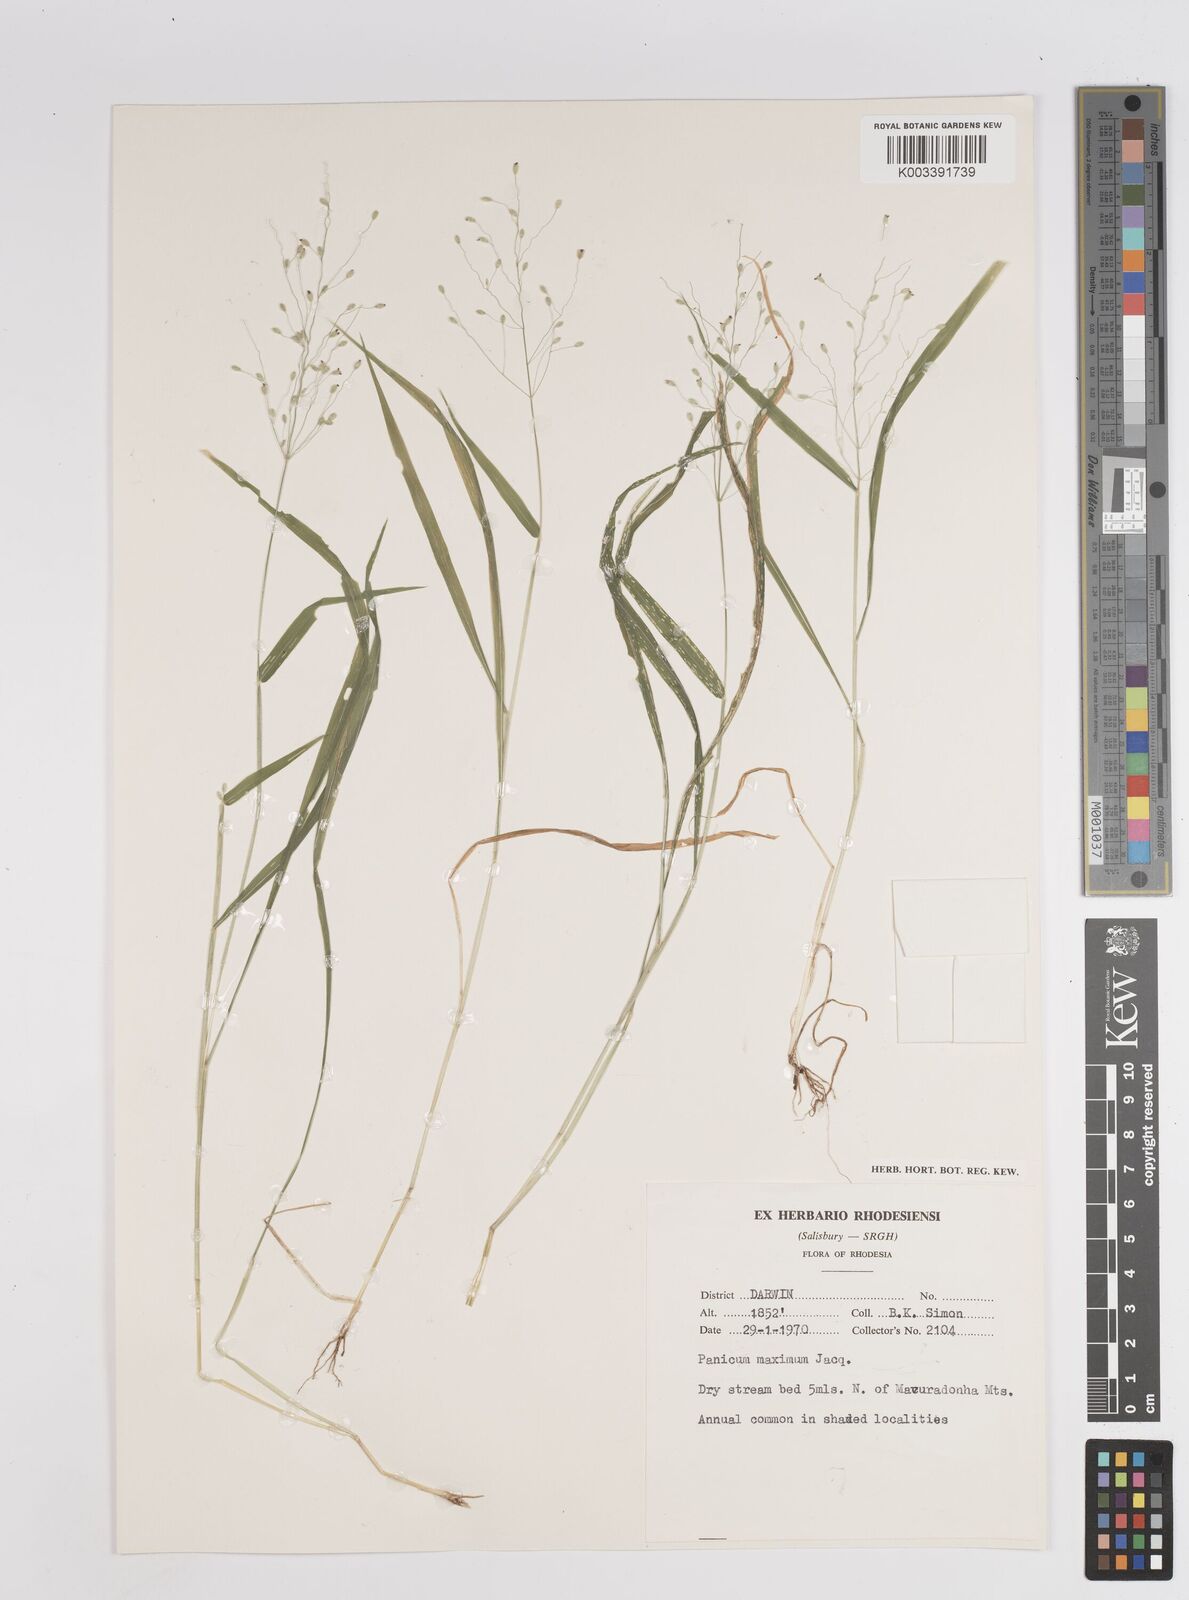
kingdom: Plantae
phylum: Tracheophyta
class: Liliopsida
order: Poales
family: Poaceae
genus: Megathyrsus
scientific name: Megathyrsus maximus
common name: Guineagrass
